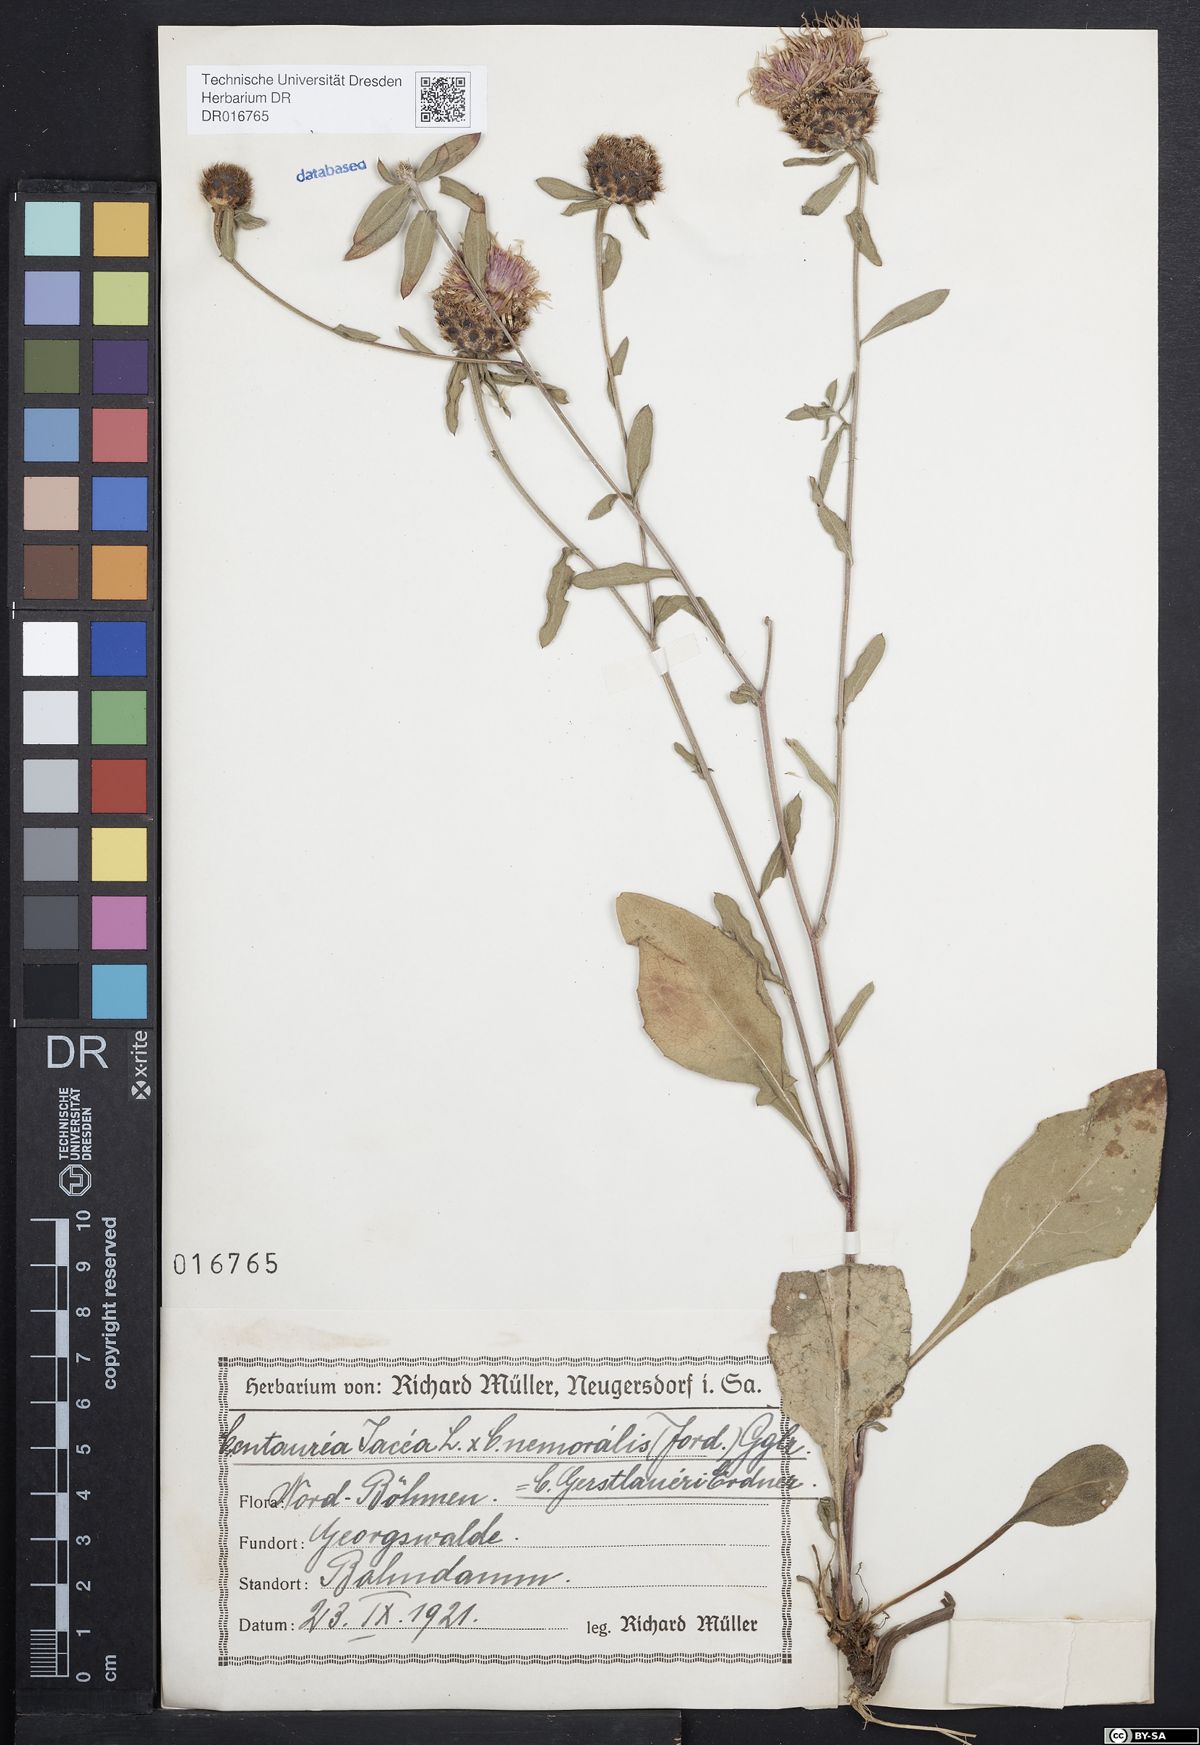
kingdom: Plantae
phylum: Tracheophyta
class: Magnoliopsida
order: Asterales
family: Asteraceae
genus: Centaurea
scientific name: Centaurea jacea
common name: Brown knapweed
